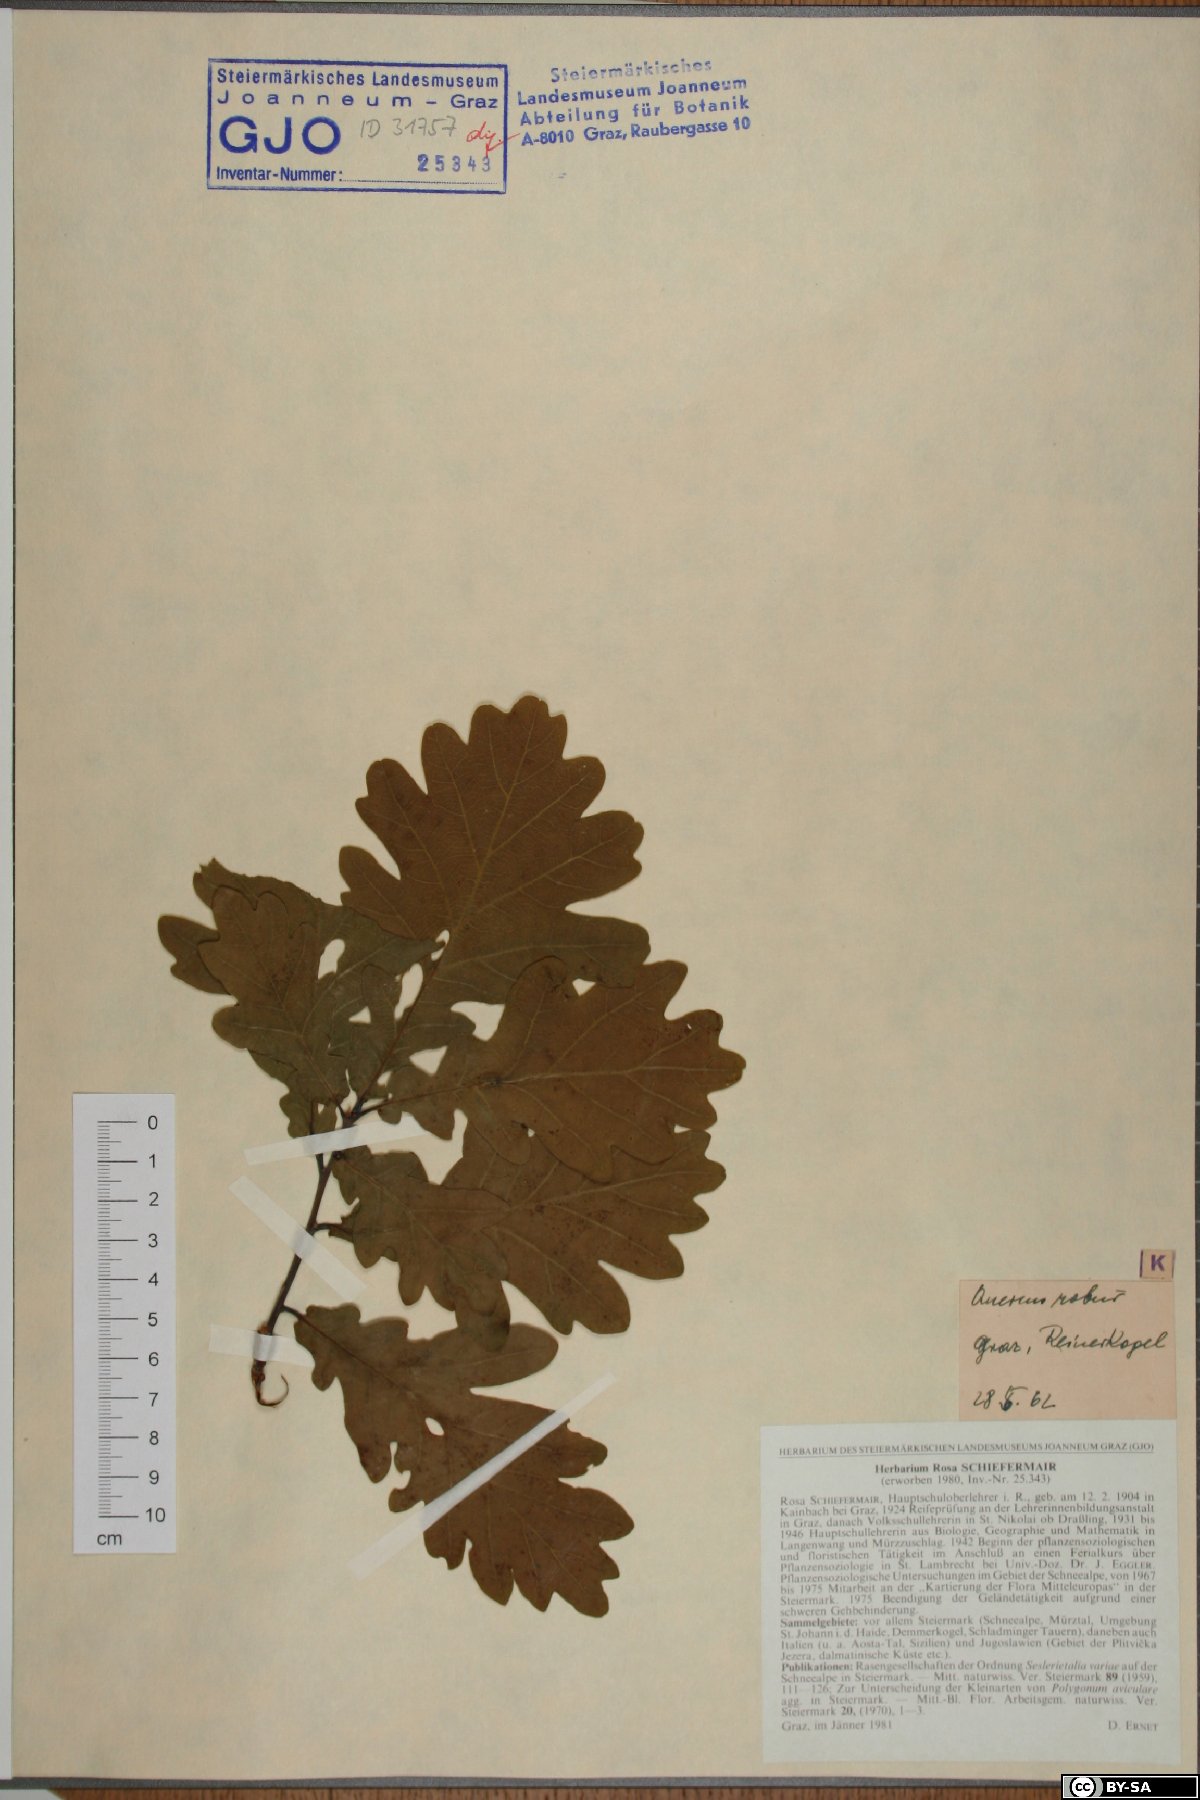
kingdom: Plantae
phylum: Tracheophyta
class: Magnoliopsida
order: Fagales
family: Fagaceae
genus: Quercus
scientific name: Quercus robur
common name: Pedunculate oak
